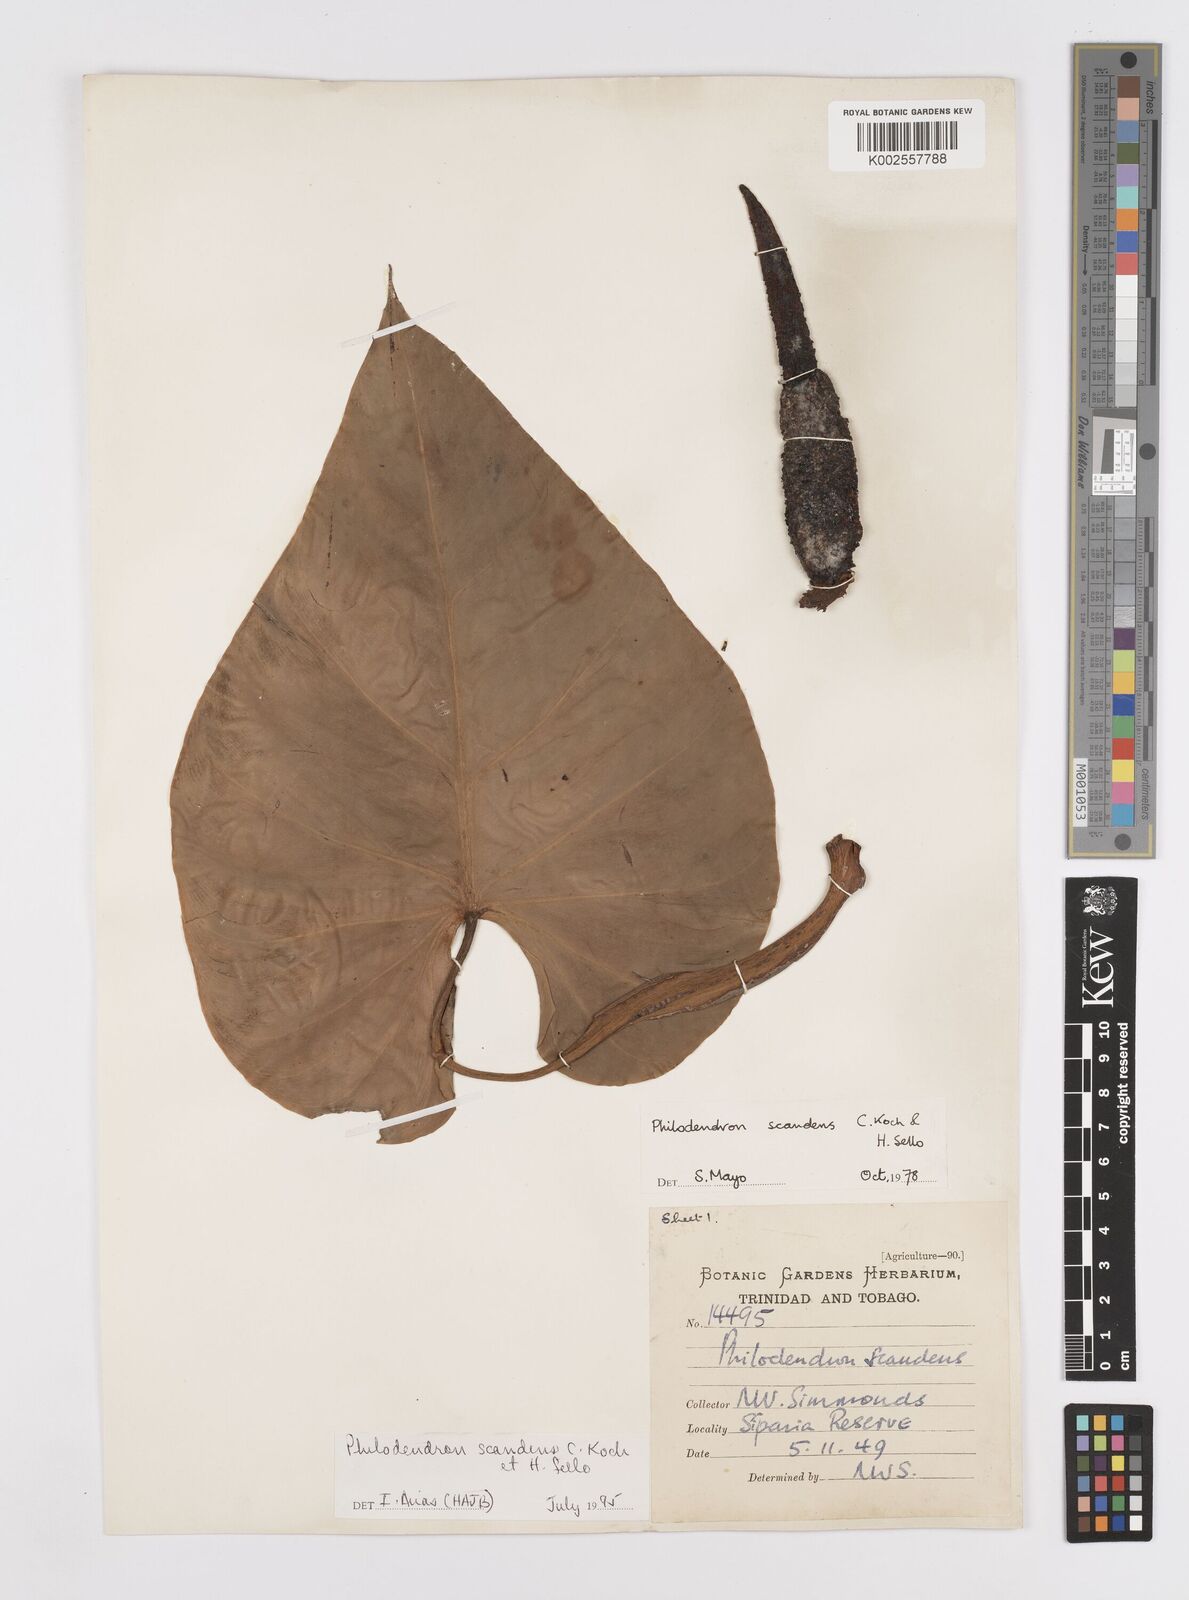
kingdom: Plantae
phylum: Tracheophyta
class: Liliopsida
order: Alismatales
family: Araceae
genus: Philodendron
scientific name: Philodendron hederaceum
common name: Vilevine
